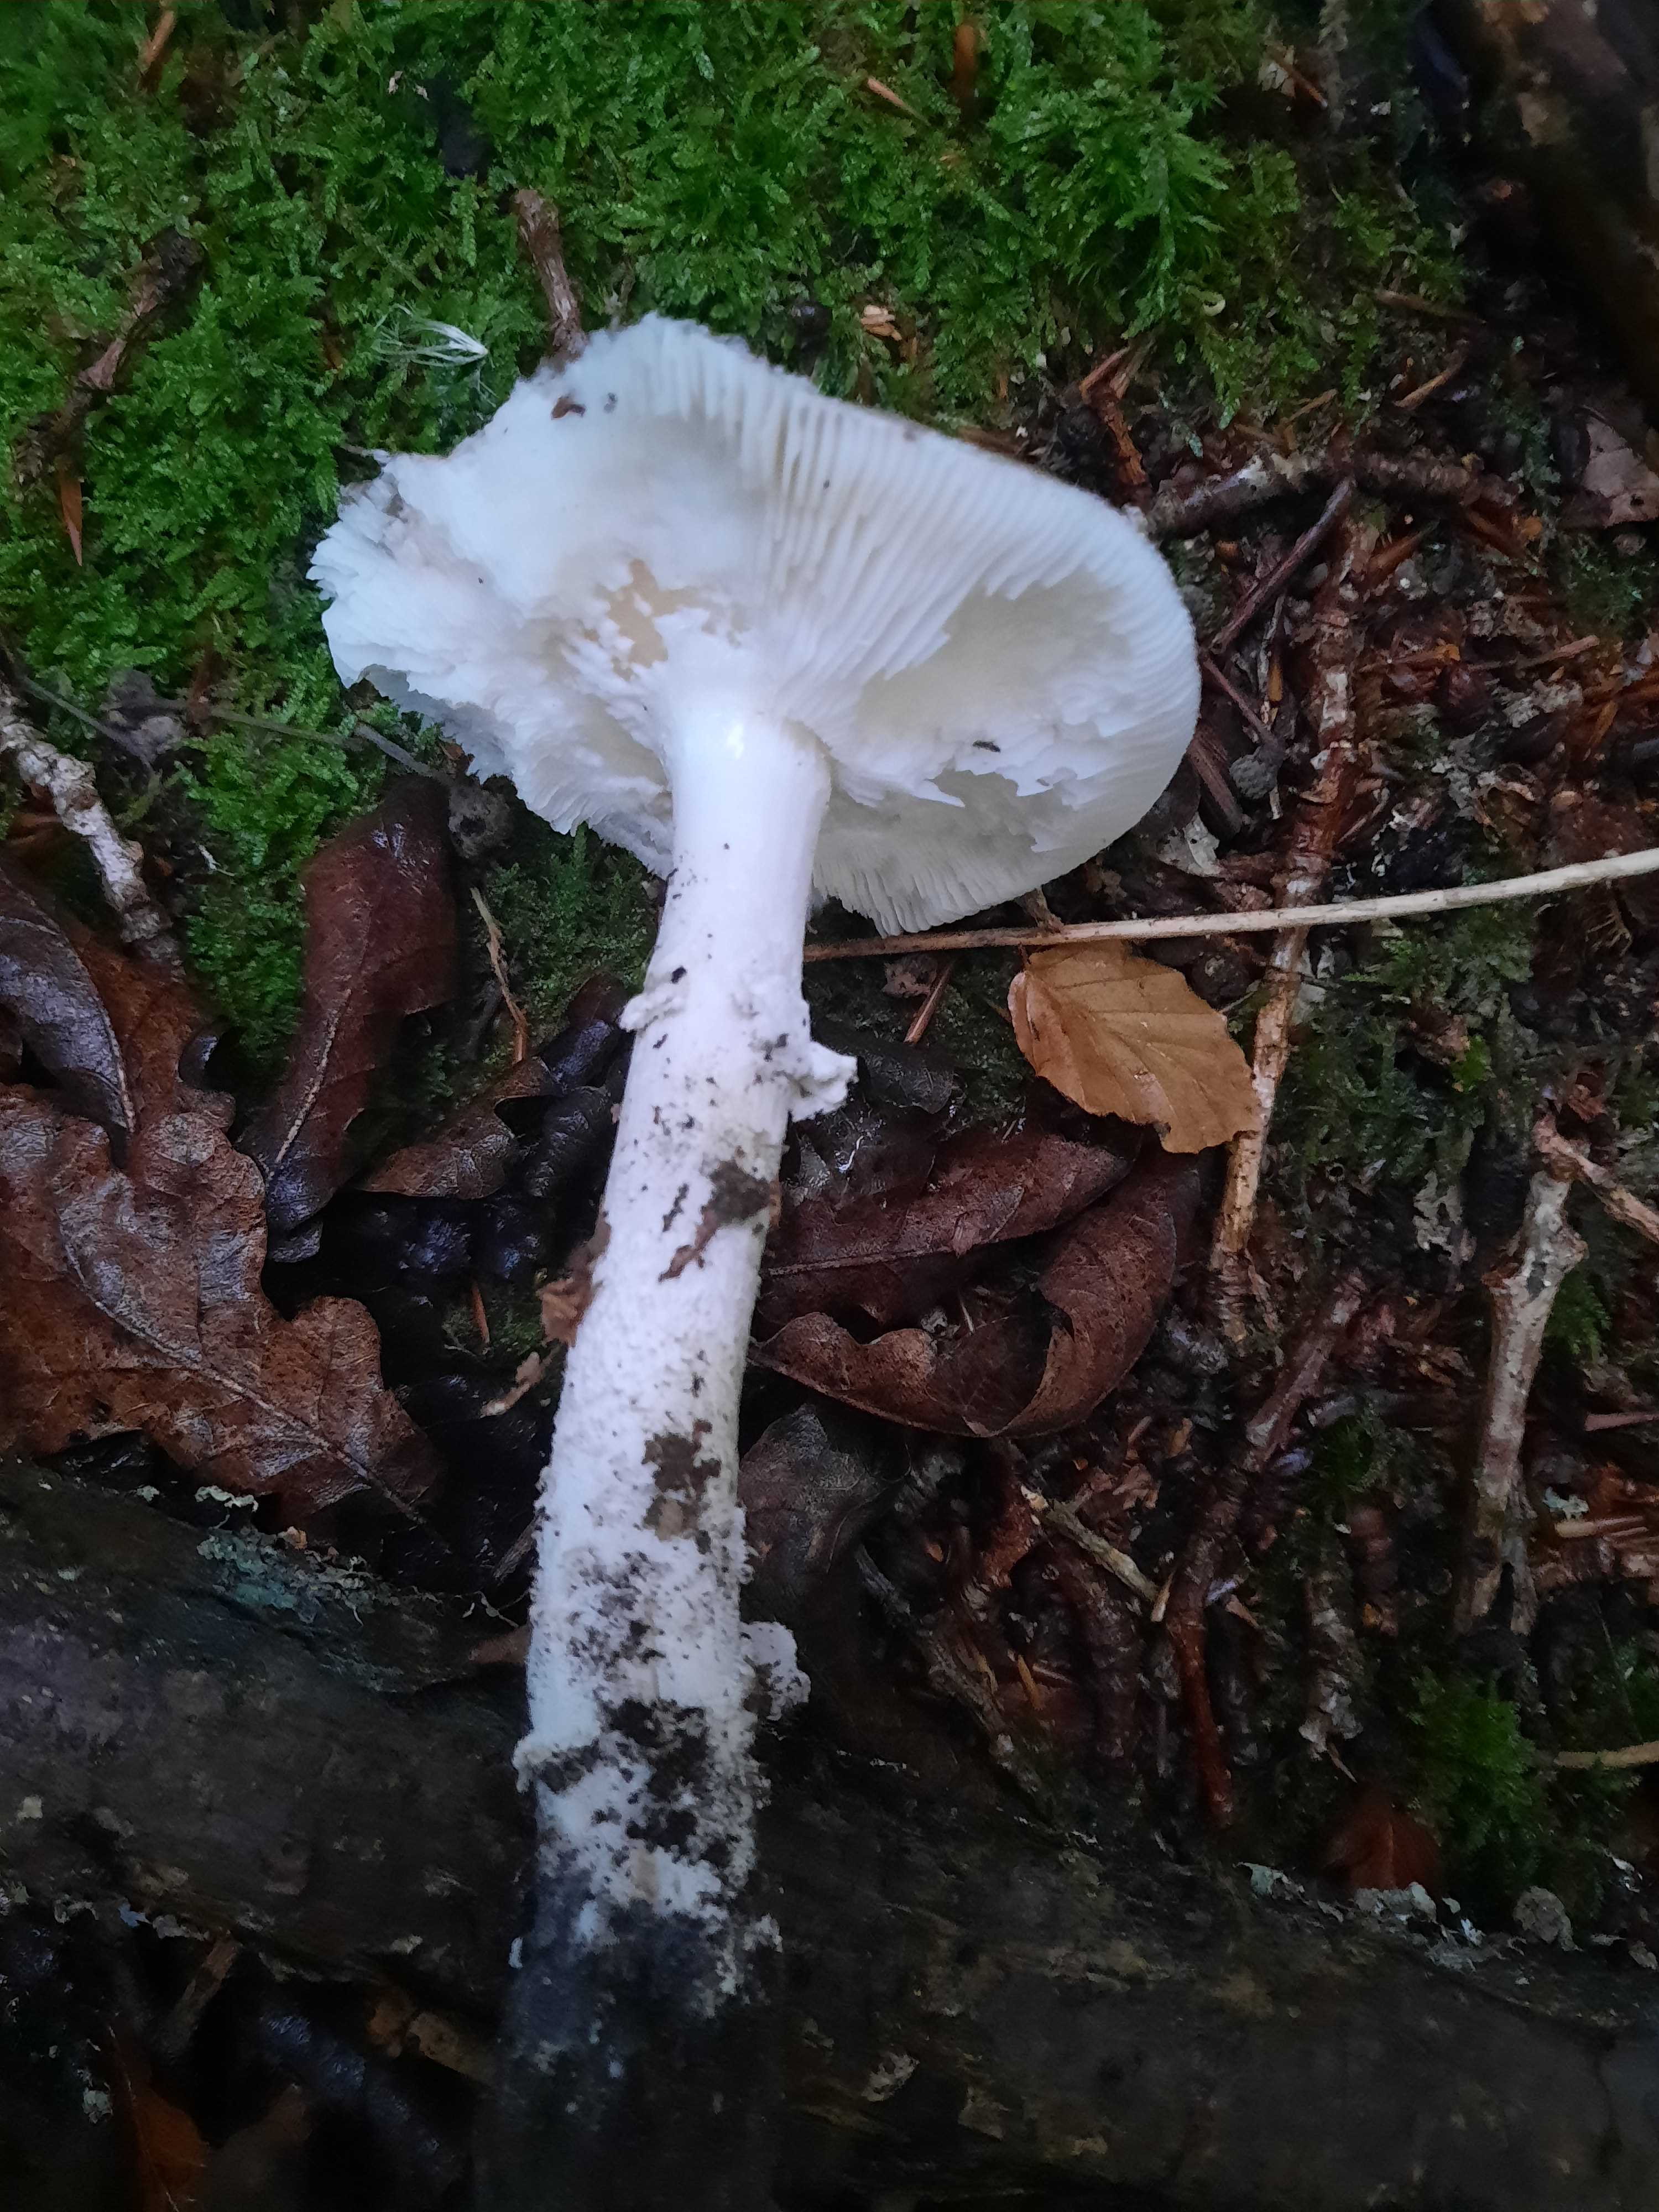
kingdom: Fungi
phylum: Basidiomycota
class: Agaricomycetes
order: Agaricales
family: Amanitaceae
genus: Amanita
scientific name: Amanita
